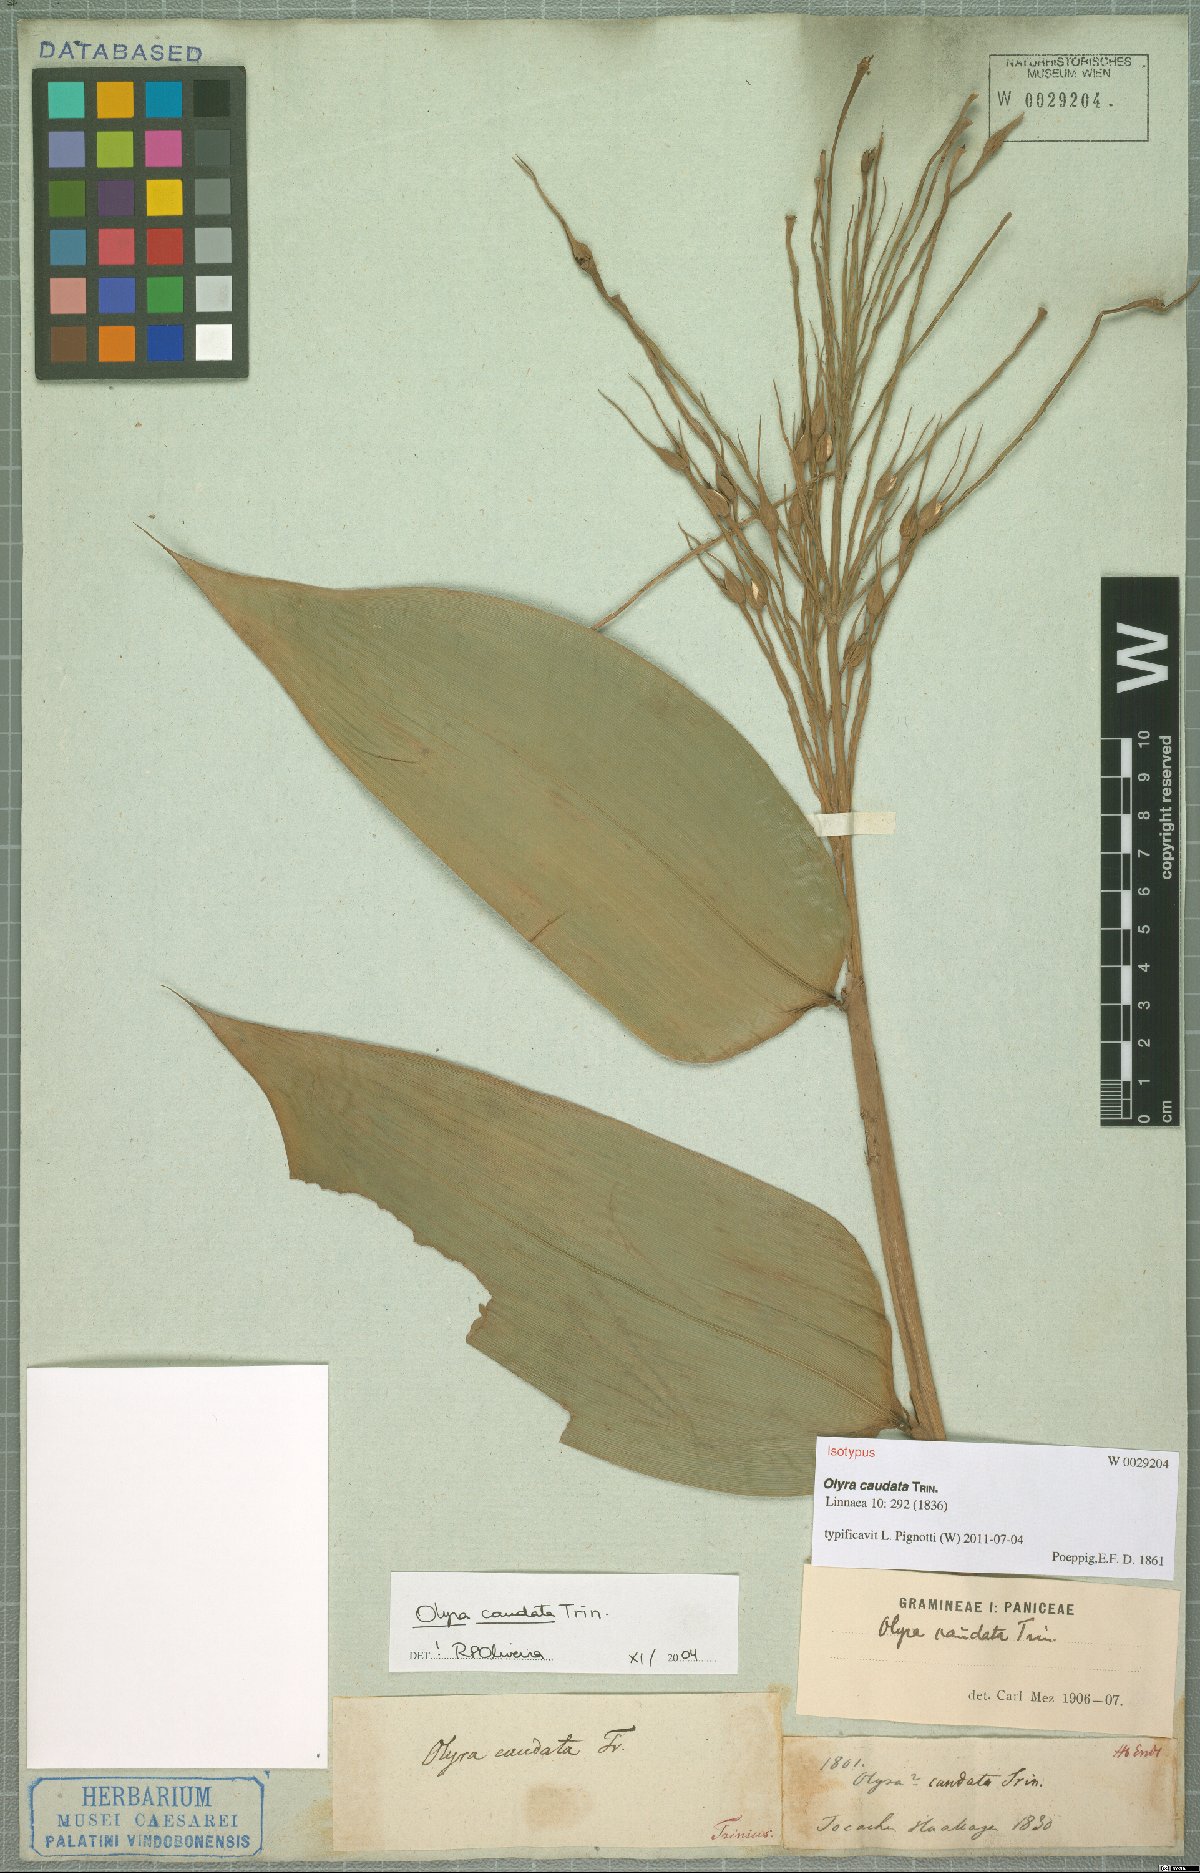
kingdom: Plantae
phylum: Tracheophyta
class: Liliopsida
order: Poales
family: Poaceae
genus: Olyra
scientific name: Olyra caudata
